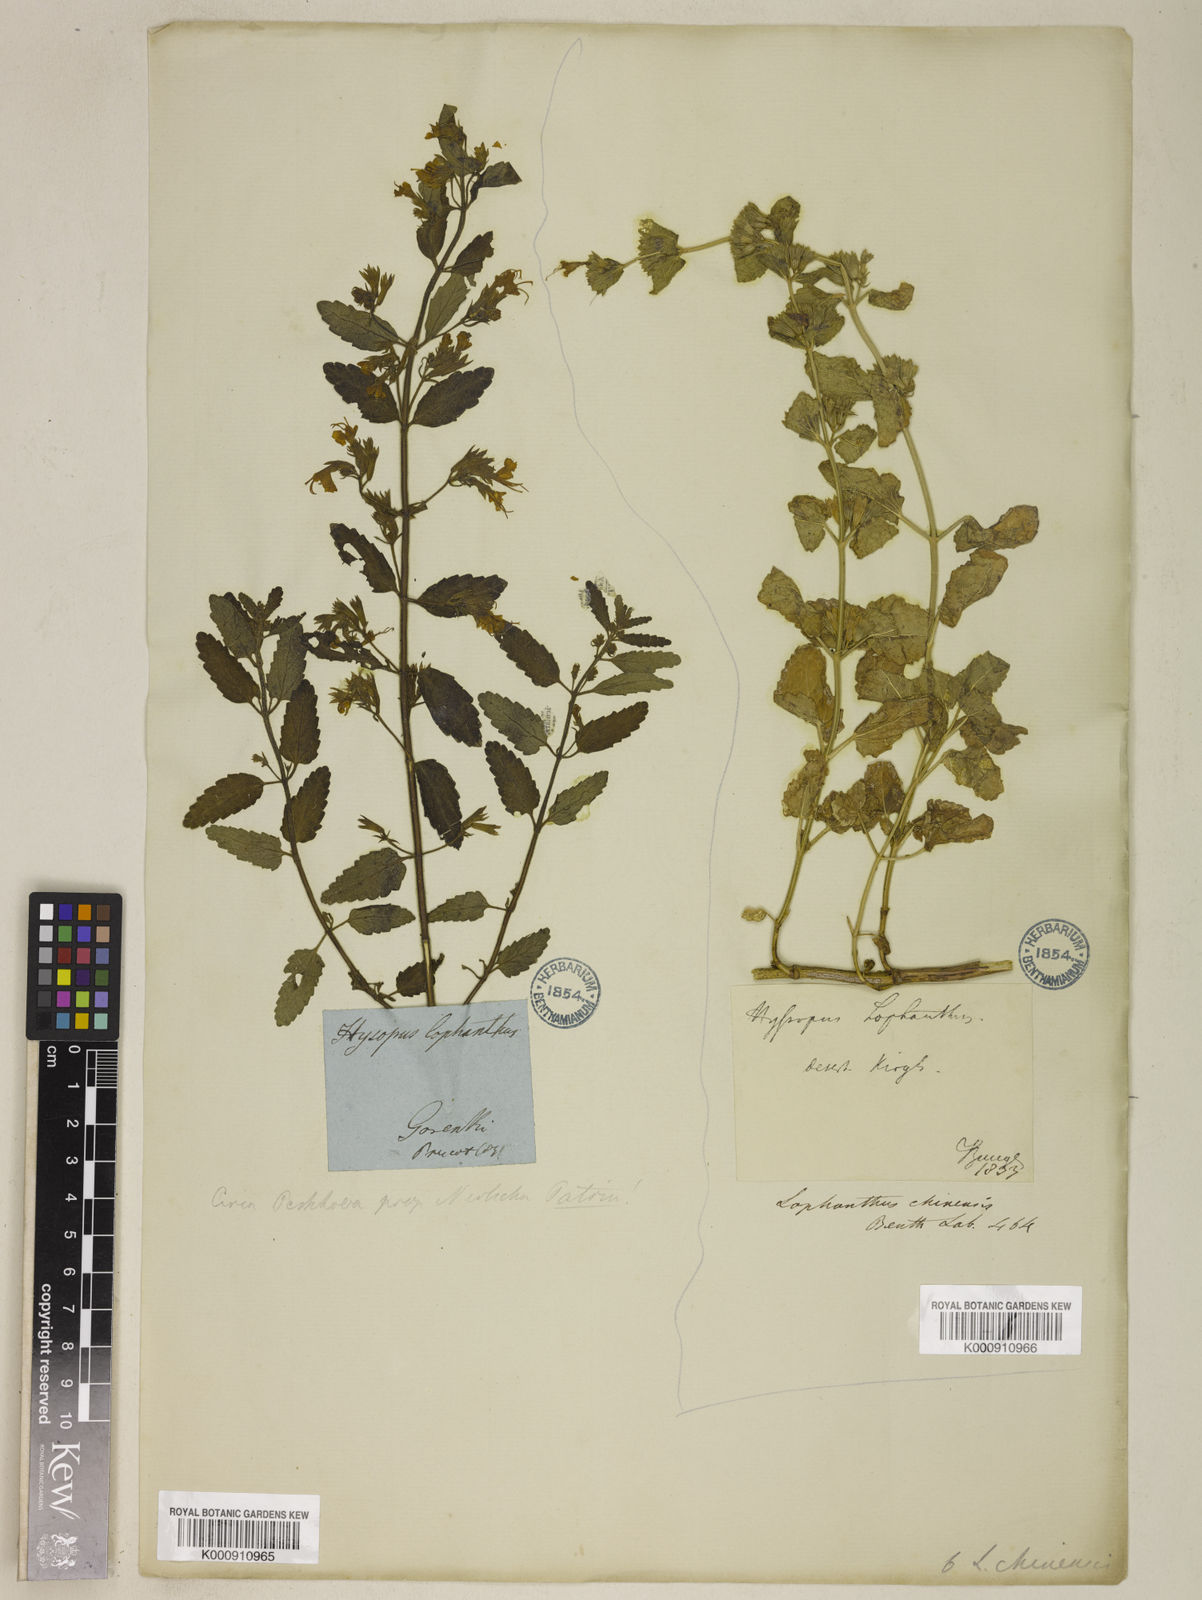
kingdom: Plantae
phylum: Tracheophyta
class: Magnoliopsida
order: Lamiales
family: Lamiaceae
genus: Nepeta
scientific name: Nepeta lophanthus
